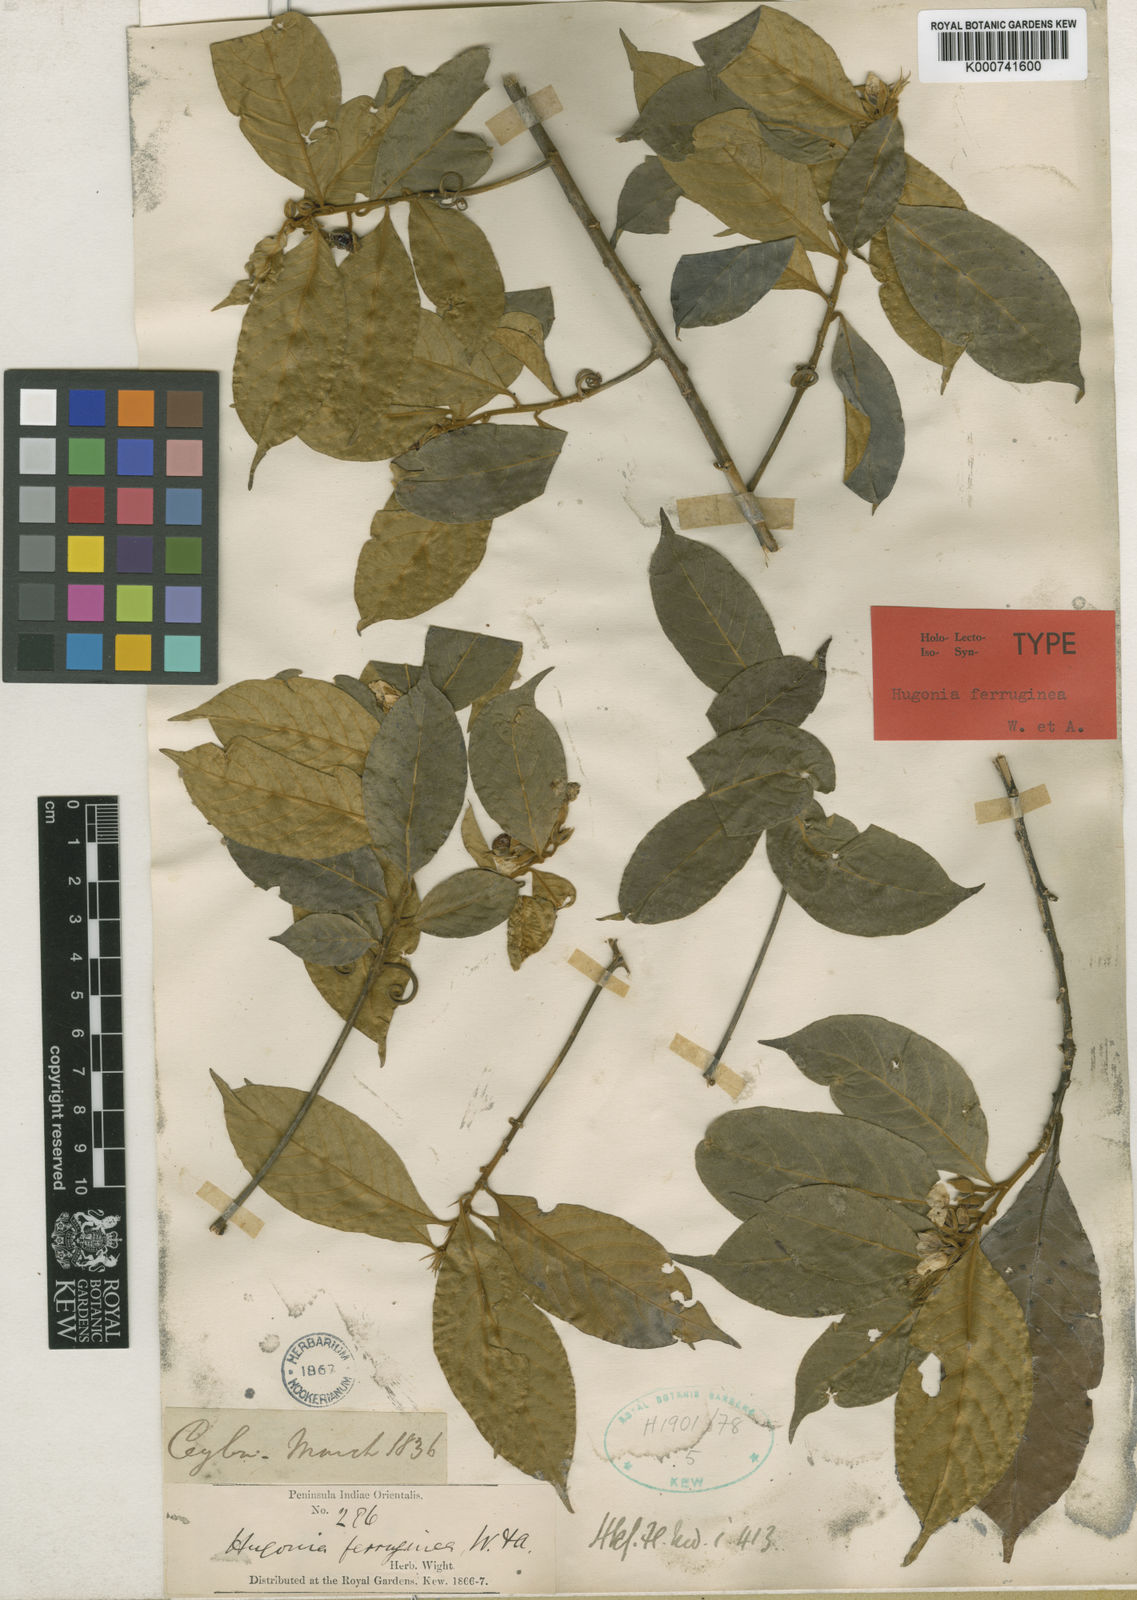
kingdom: Plantae
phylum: Tracheophyta
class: Magnoliopsida
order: Malpighiales
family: Linaceae
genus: Hugonia
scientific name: Hugonia ferruginea
